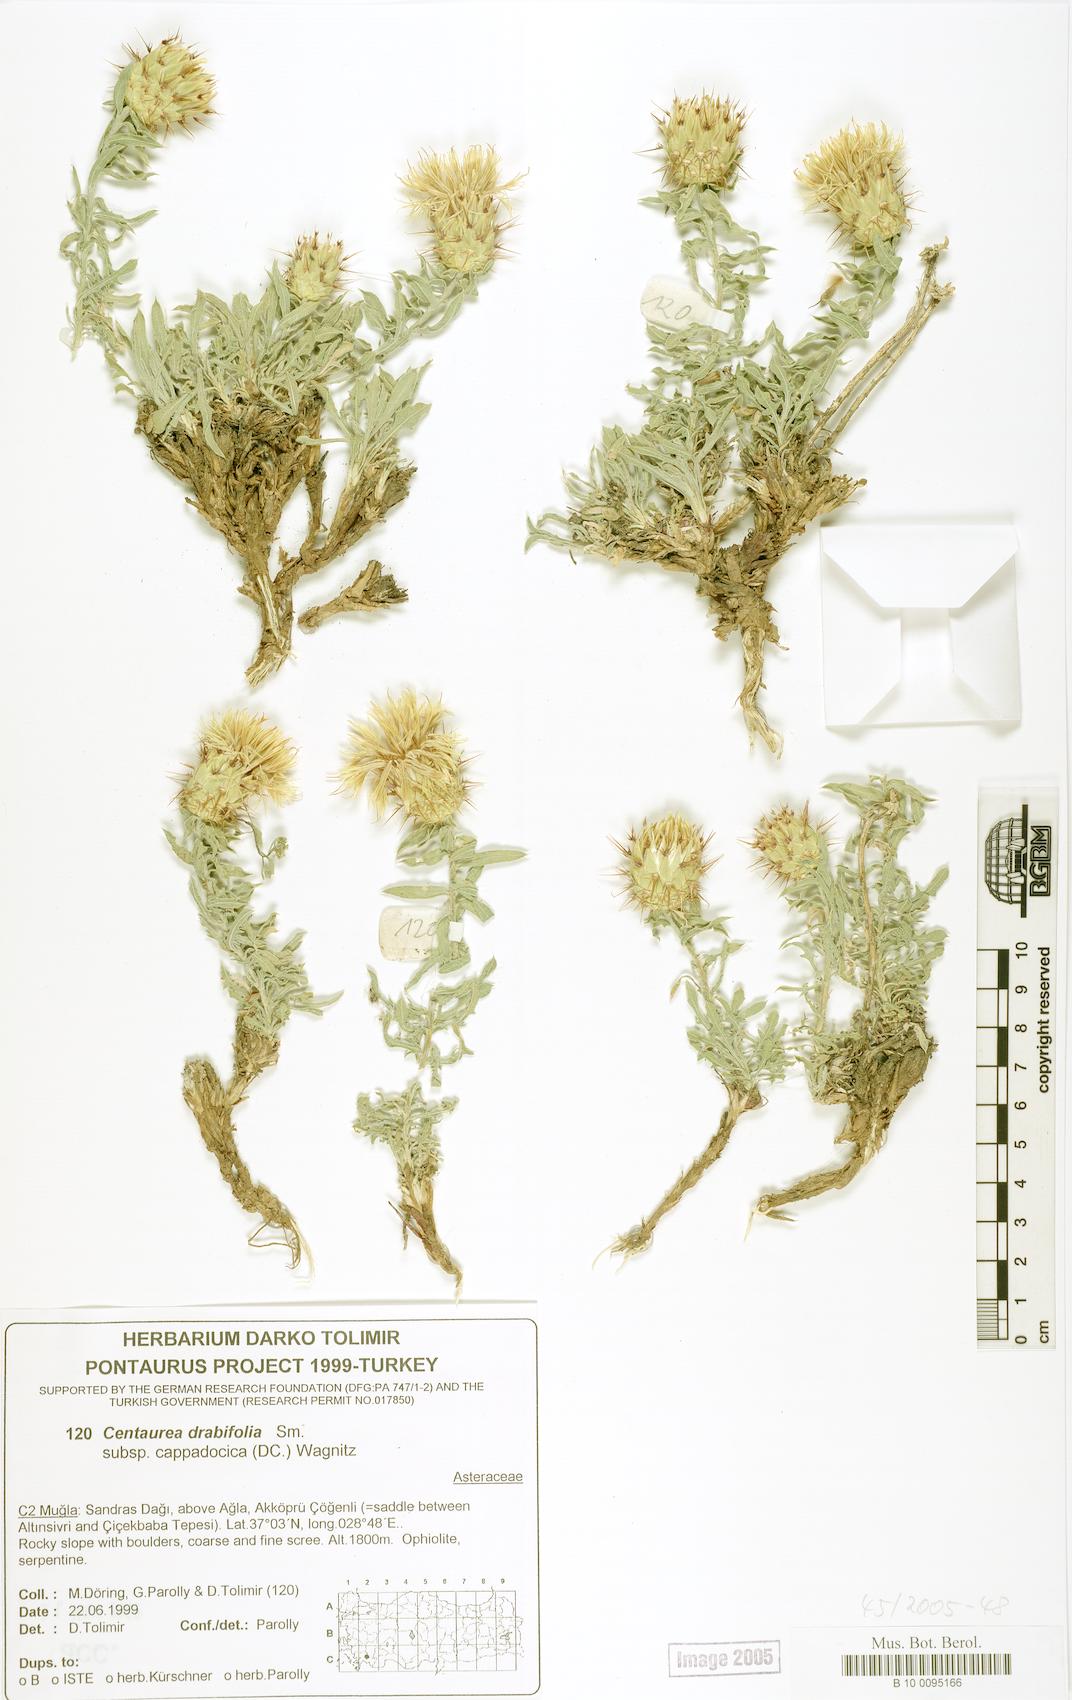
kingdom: Plantae
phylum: Tracheophyta
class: Magnoliopsida
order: Asterales
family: Asteraceae
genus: Centaurea
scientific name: Centaurea drabifolia
